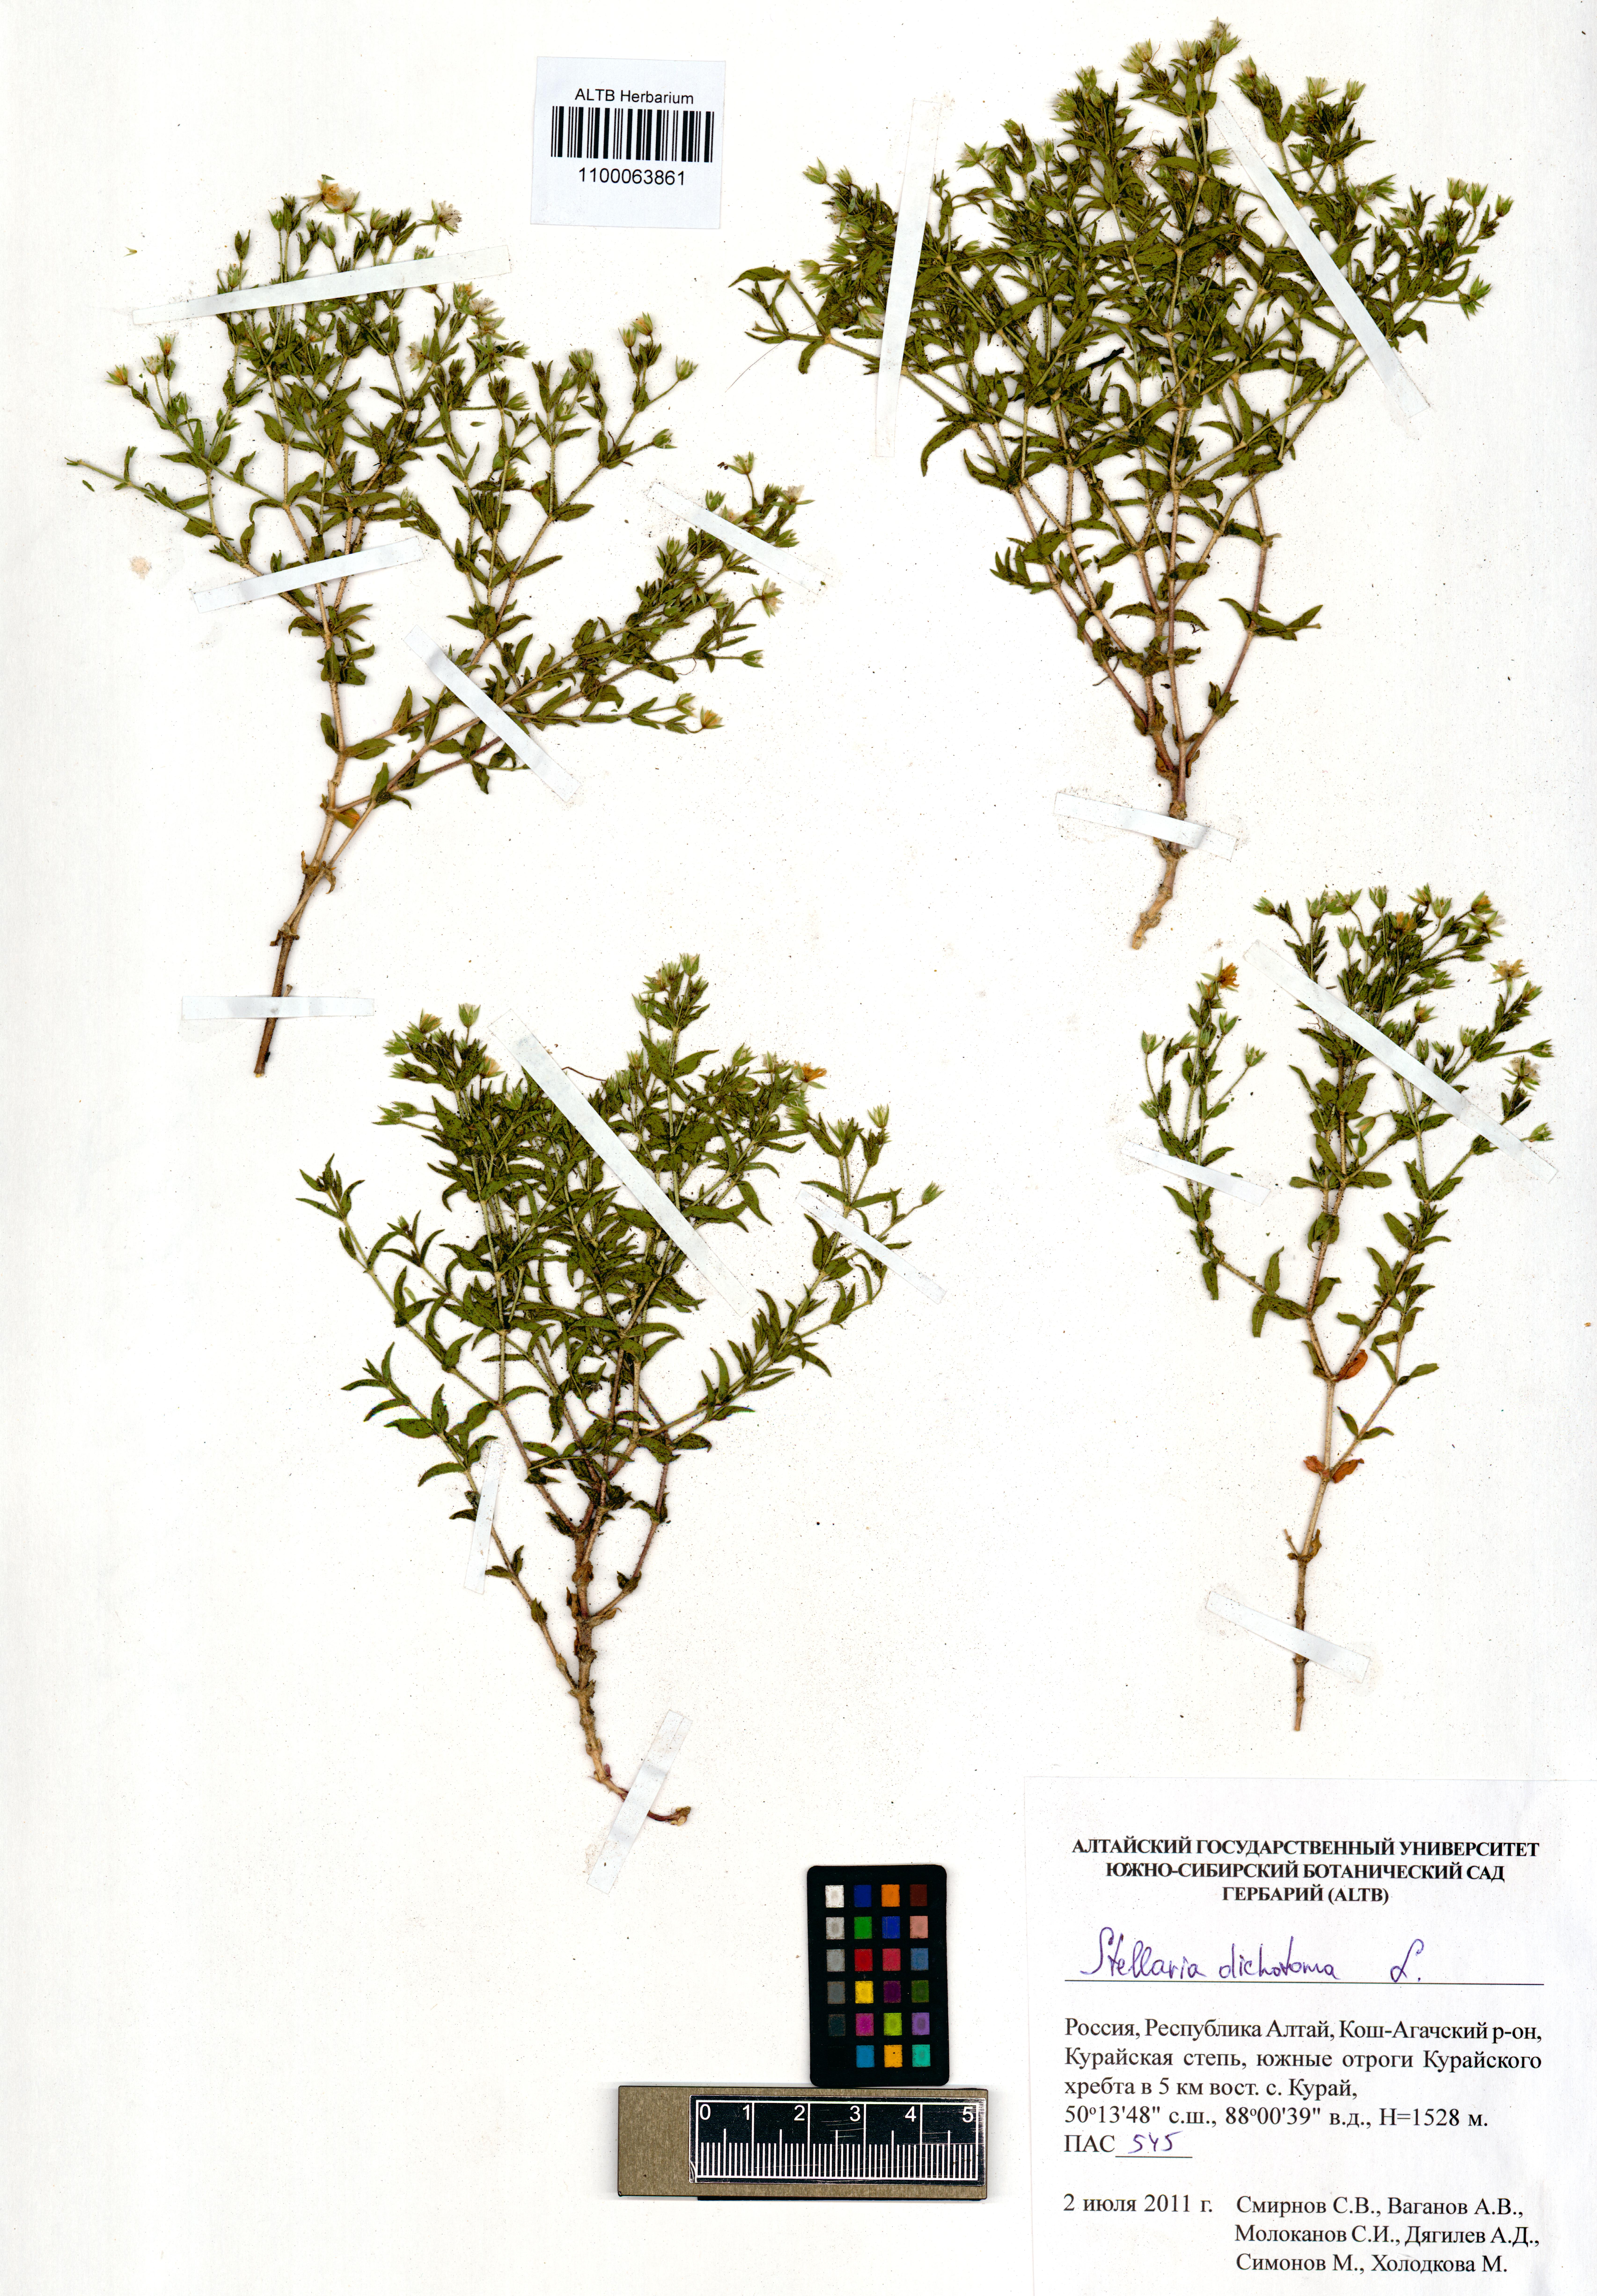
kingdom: Plantae
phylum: Tracheophyta
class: Magnoliopsida
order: Caryophyllales
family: Caryophyllaceae
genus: Mesostemma
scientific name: Mesostemma dichotomum
